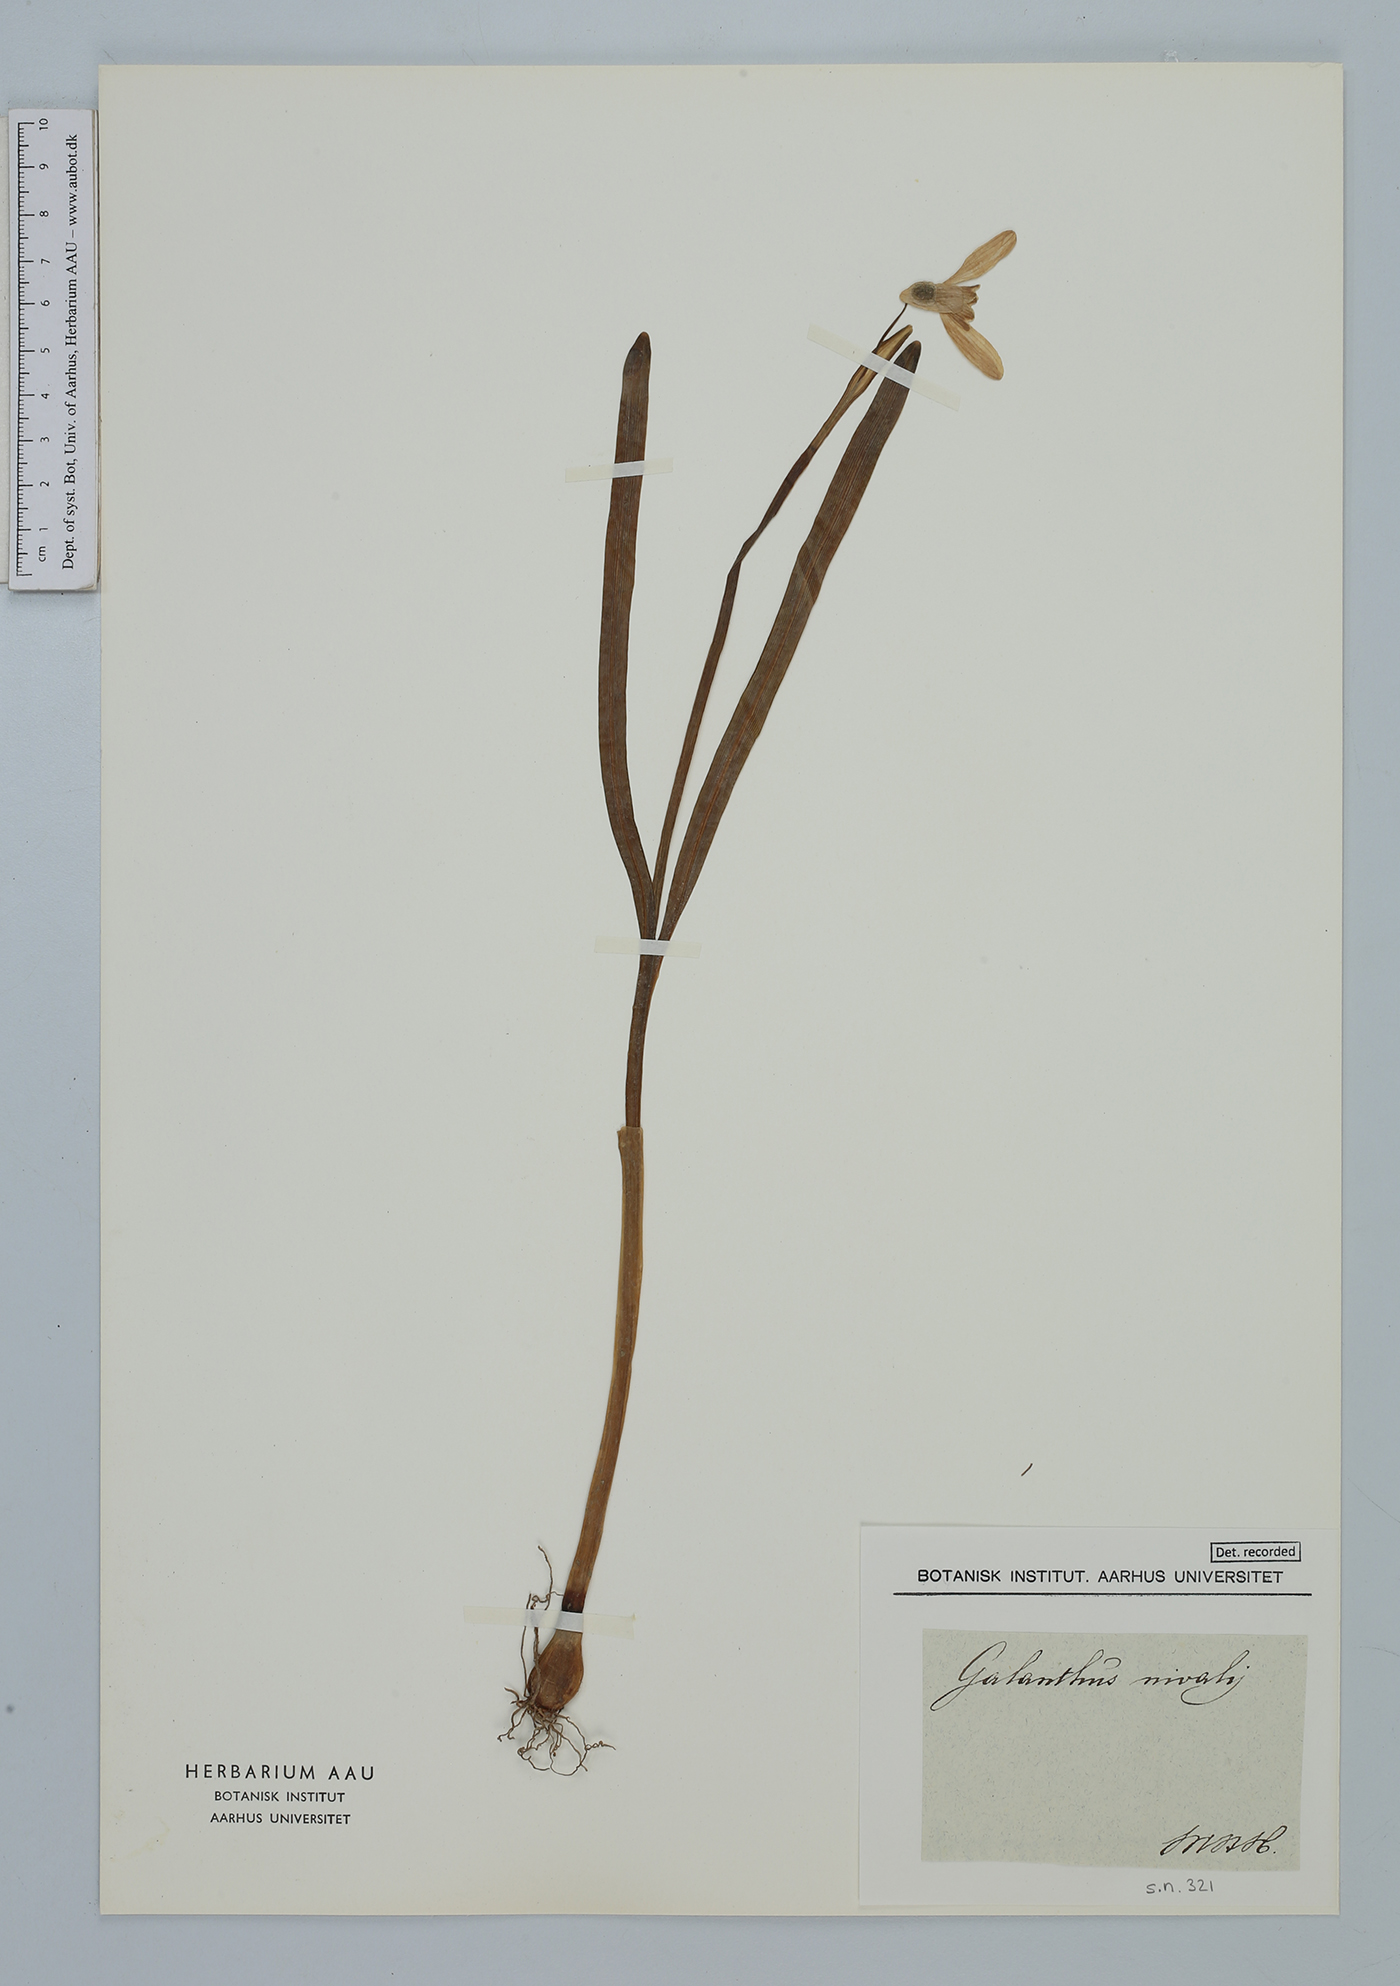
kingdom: Plantae
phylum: Tracheophyta
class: Liliopsida
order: Asparagales
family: Amaryllidaceae
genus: Galanthus
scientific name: Galanthus nivalis
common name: Snowdrop
